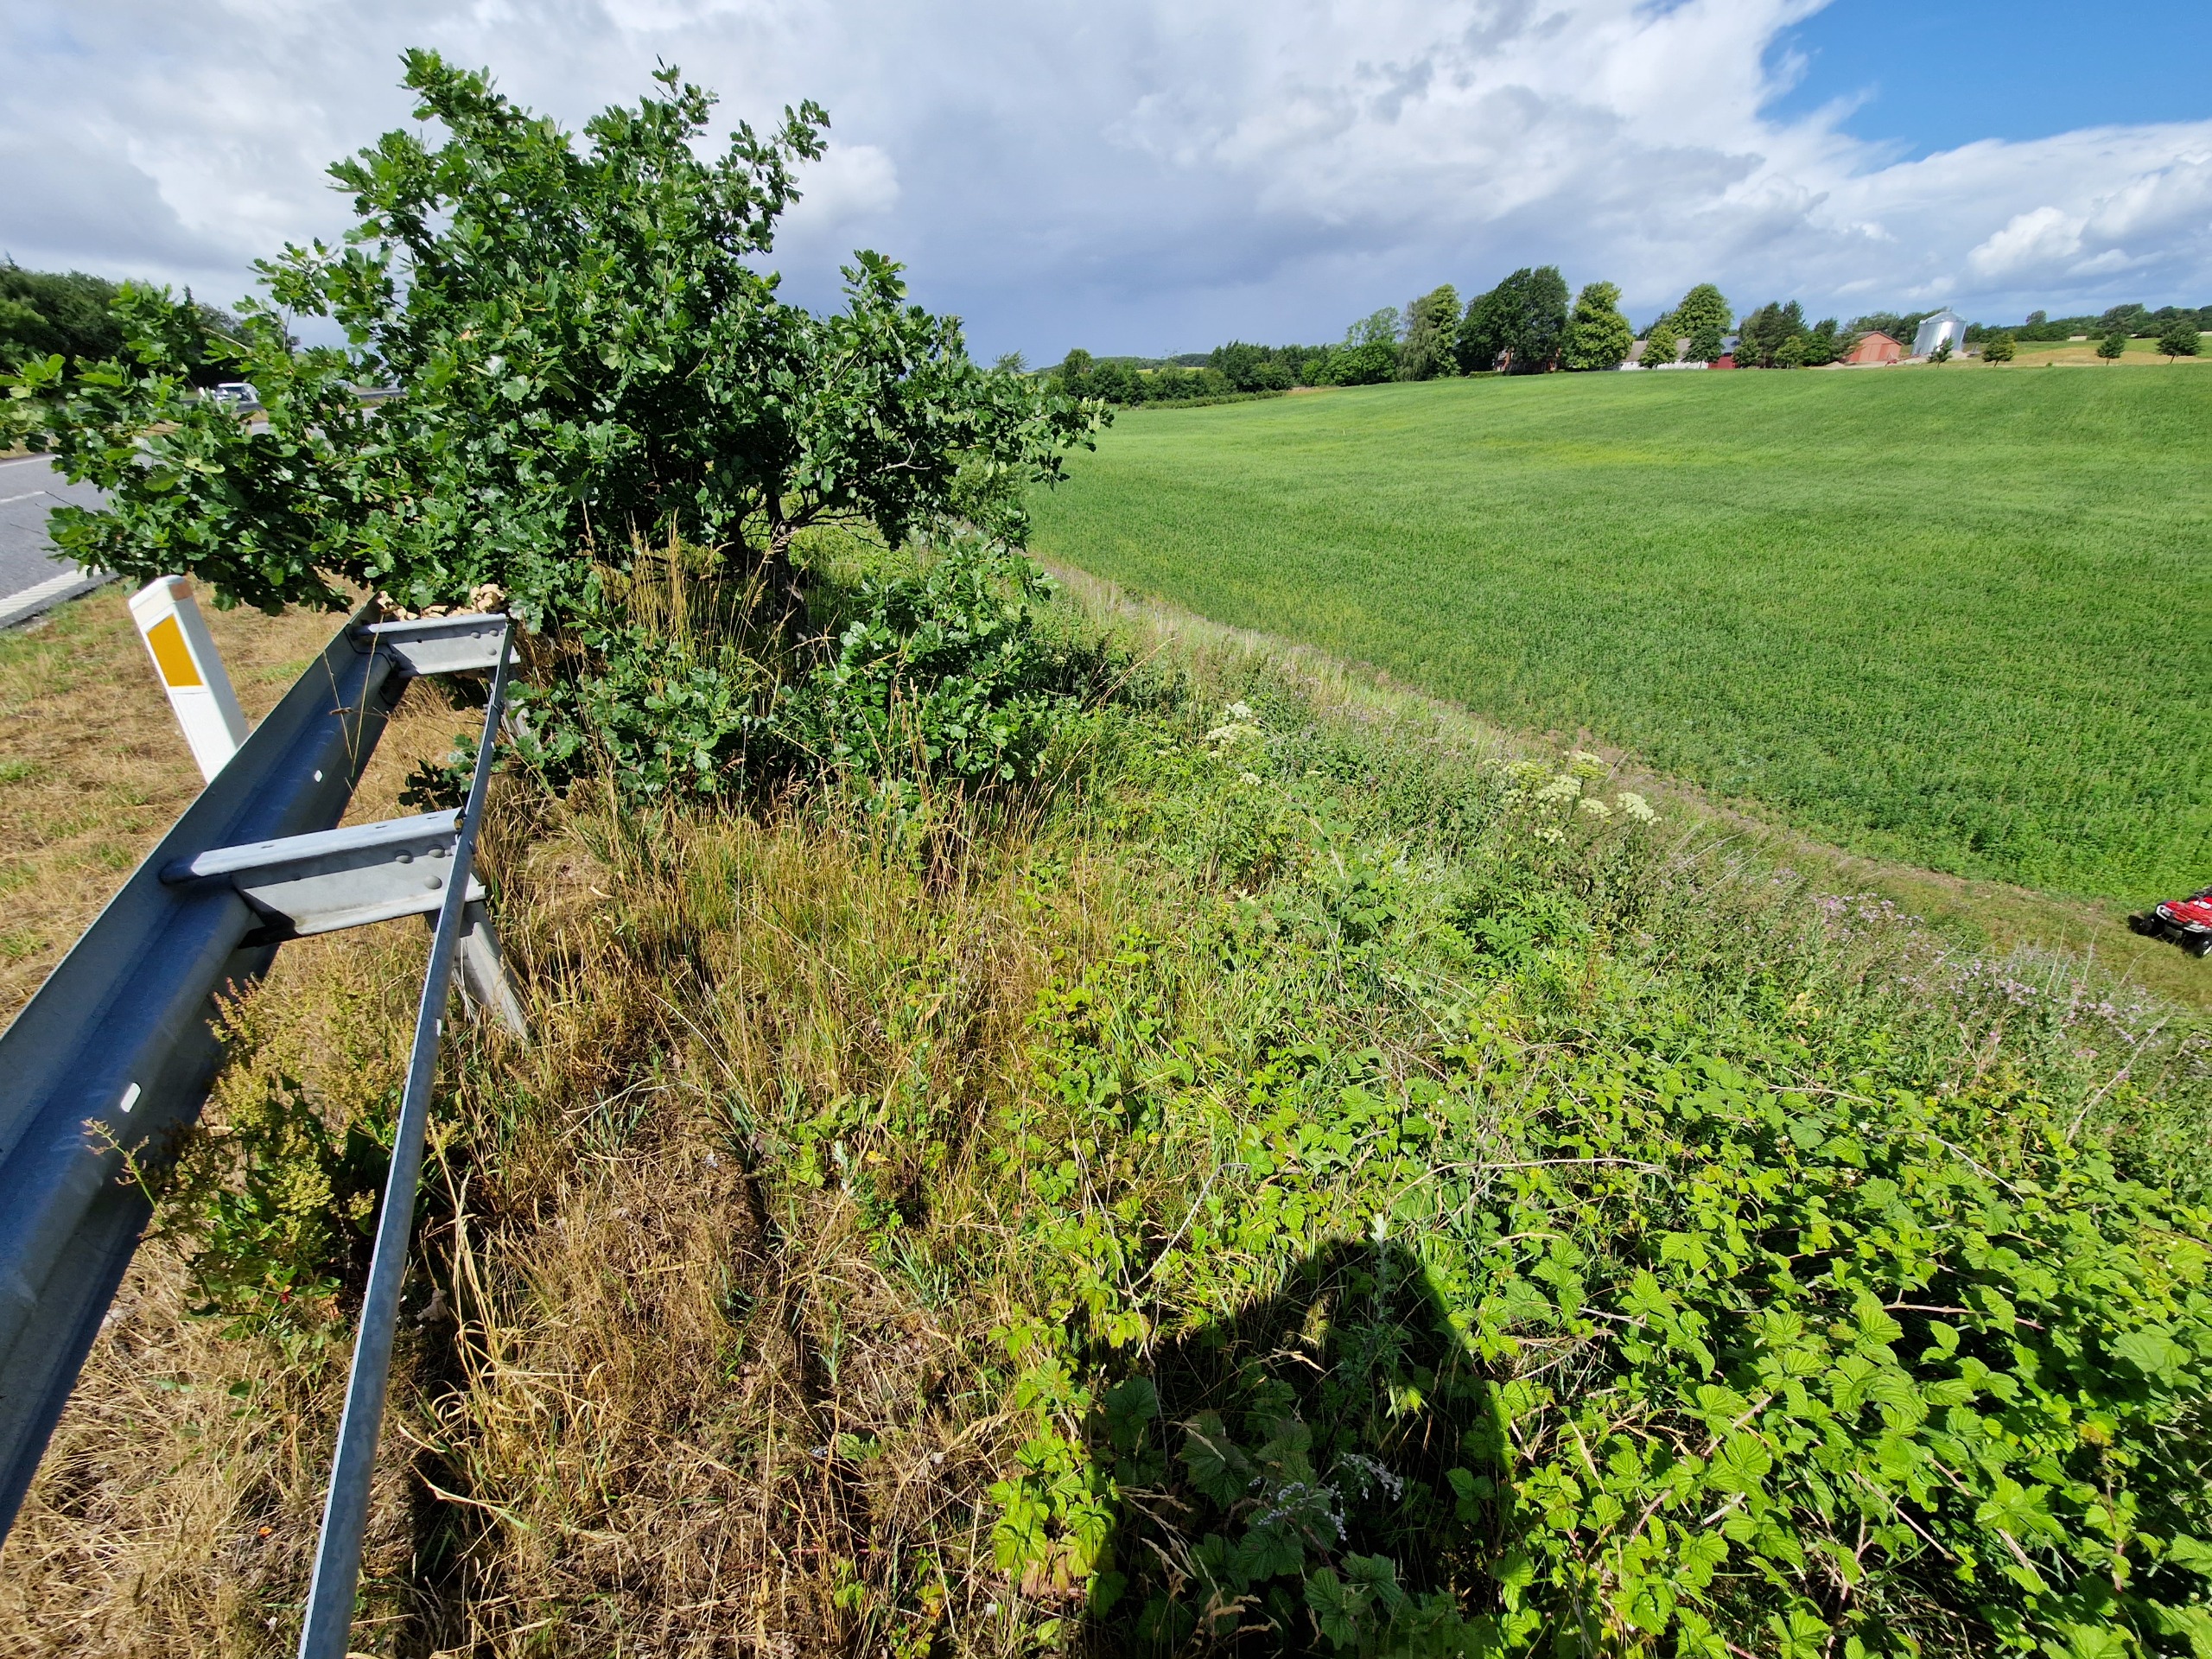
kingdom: Plantae
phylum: Tracheophyta
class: Magnoliopsida
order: Apiales
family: Apiaceae
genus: Heracleum
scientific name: Heracleum mantegazzianum
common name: Kæmpe-bjørneklo
